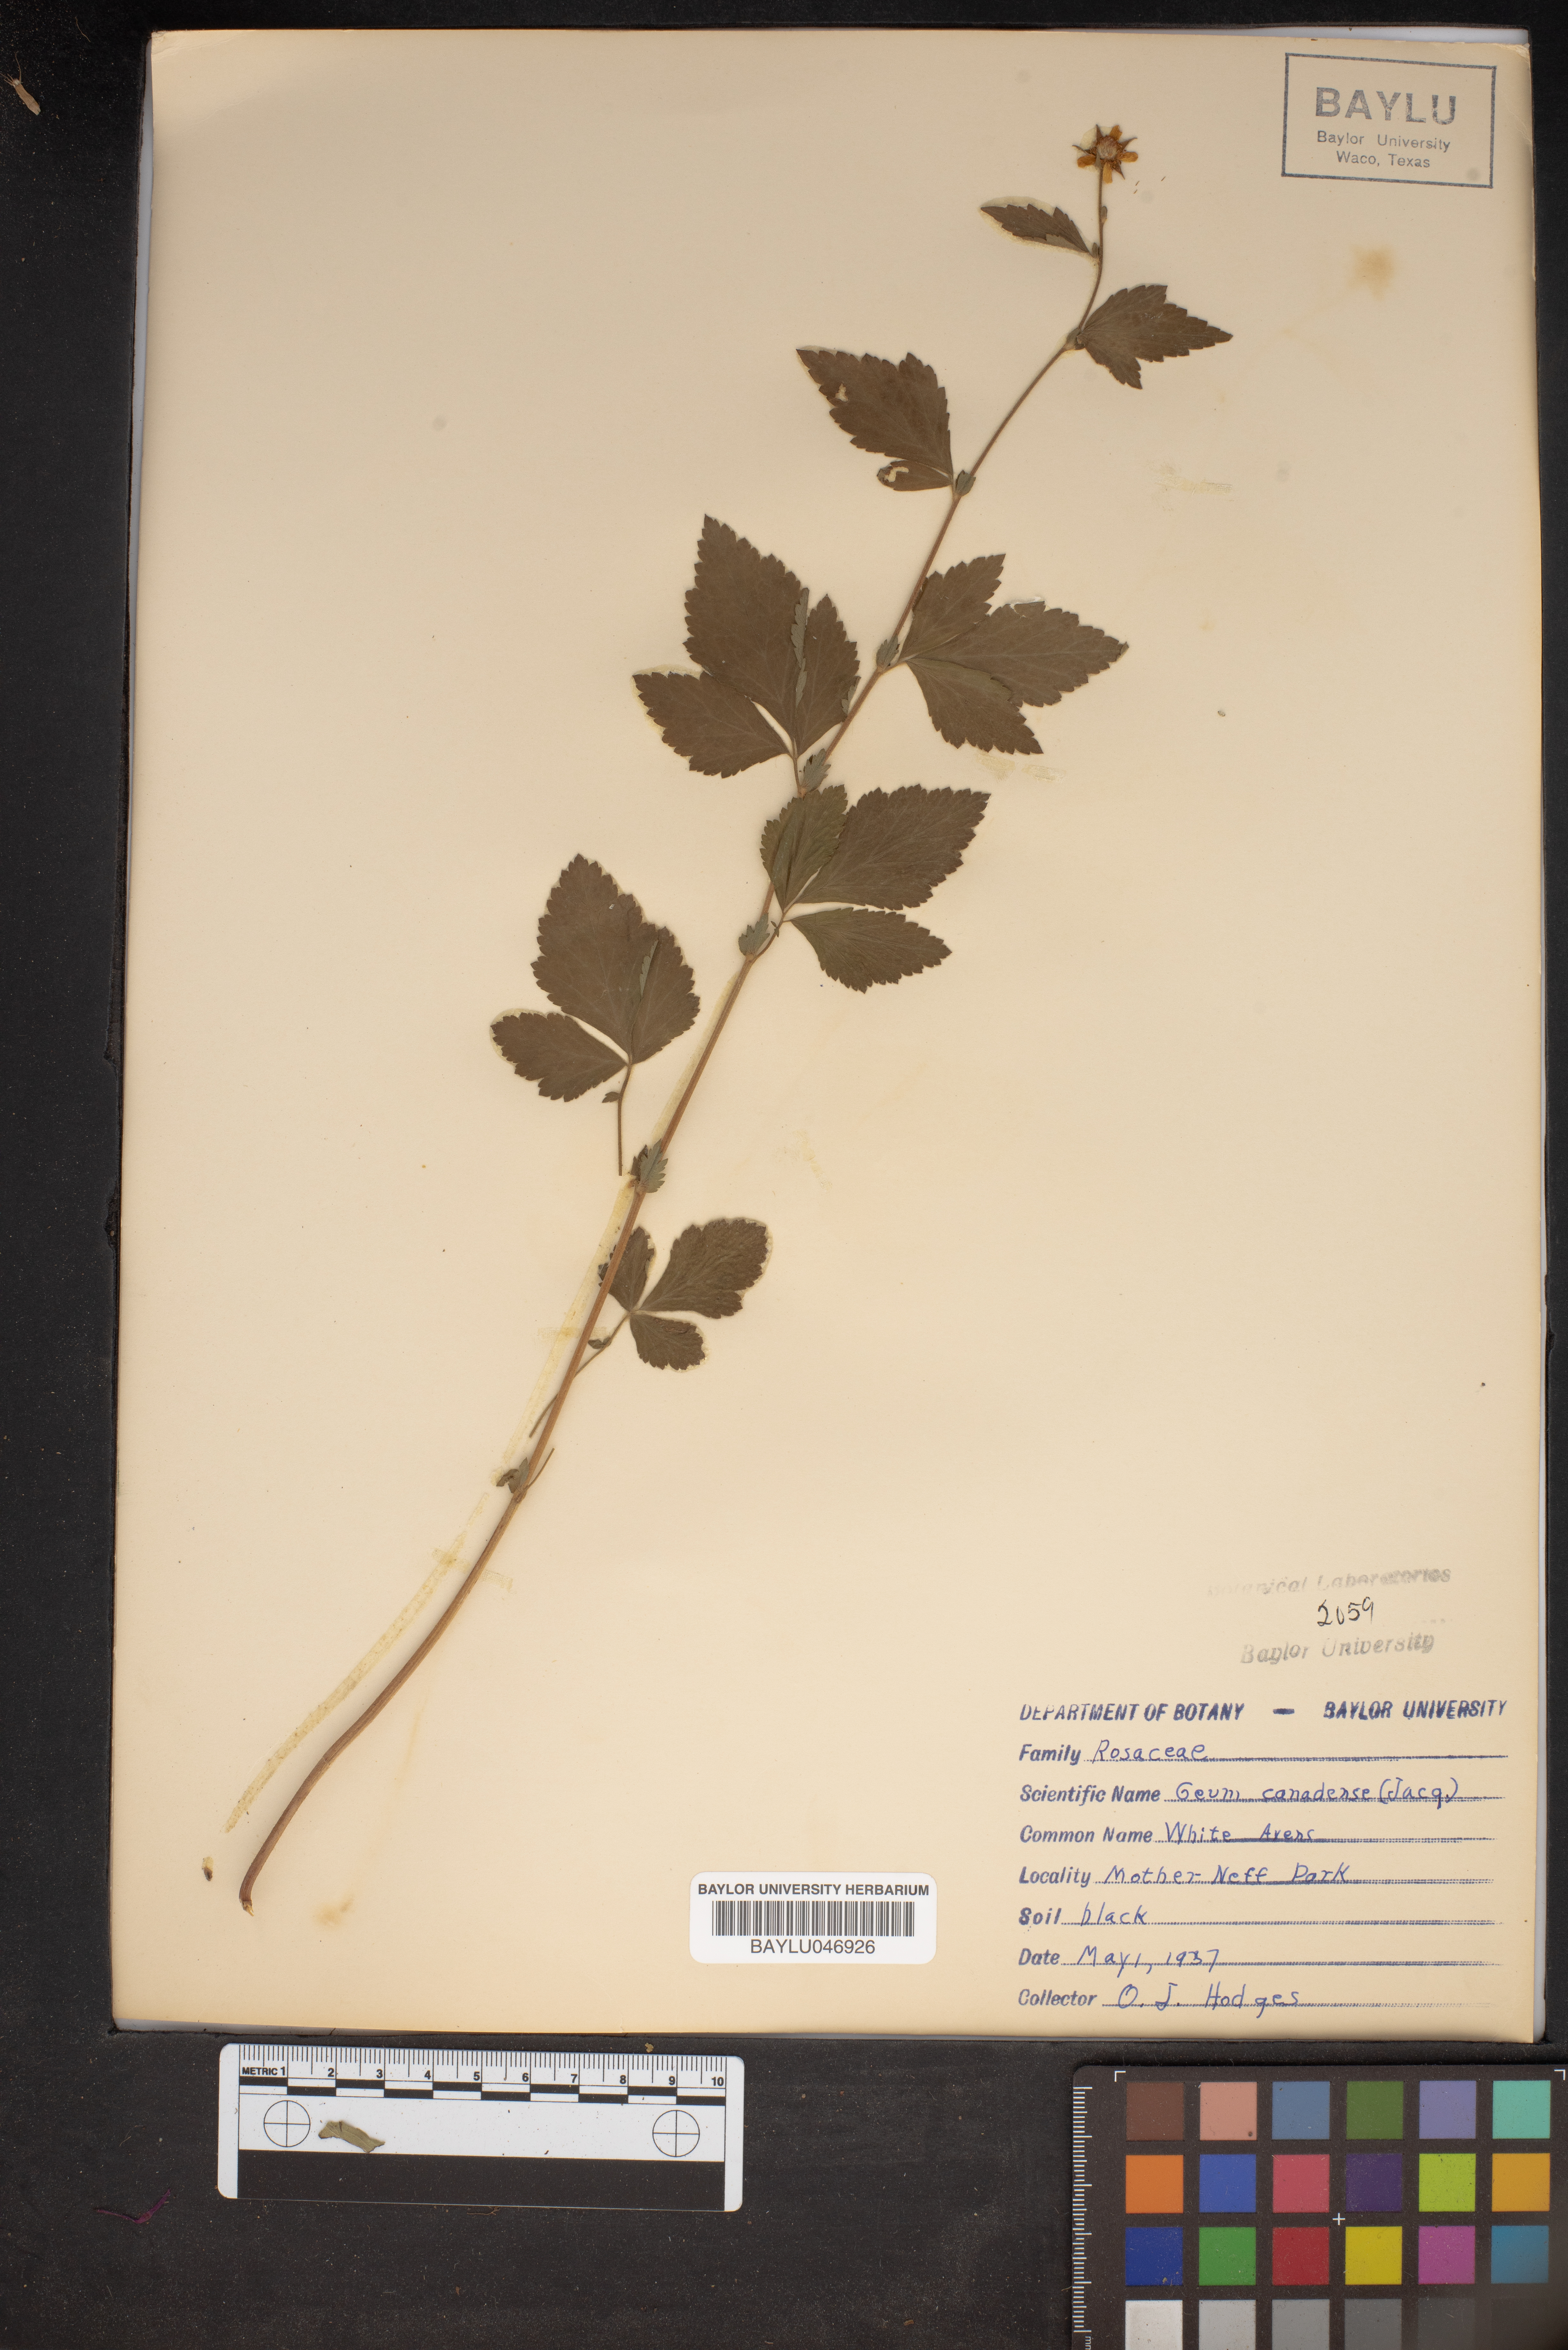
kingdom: Plantae
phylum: Tracheophyta
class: Magnoliopsida
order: Rosales
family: Rosaceae
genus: Geum
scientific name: Geum canadense
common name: White avens
